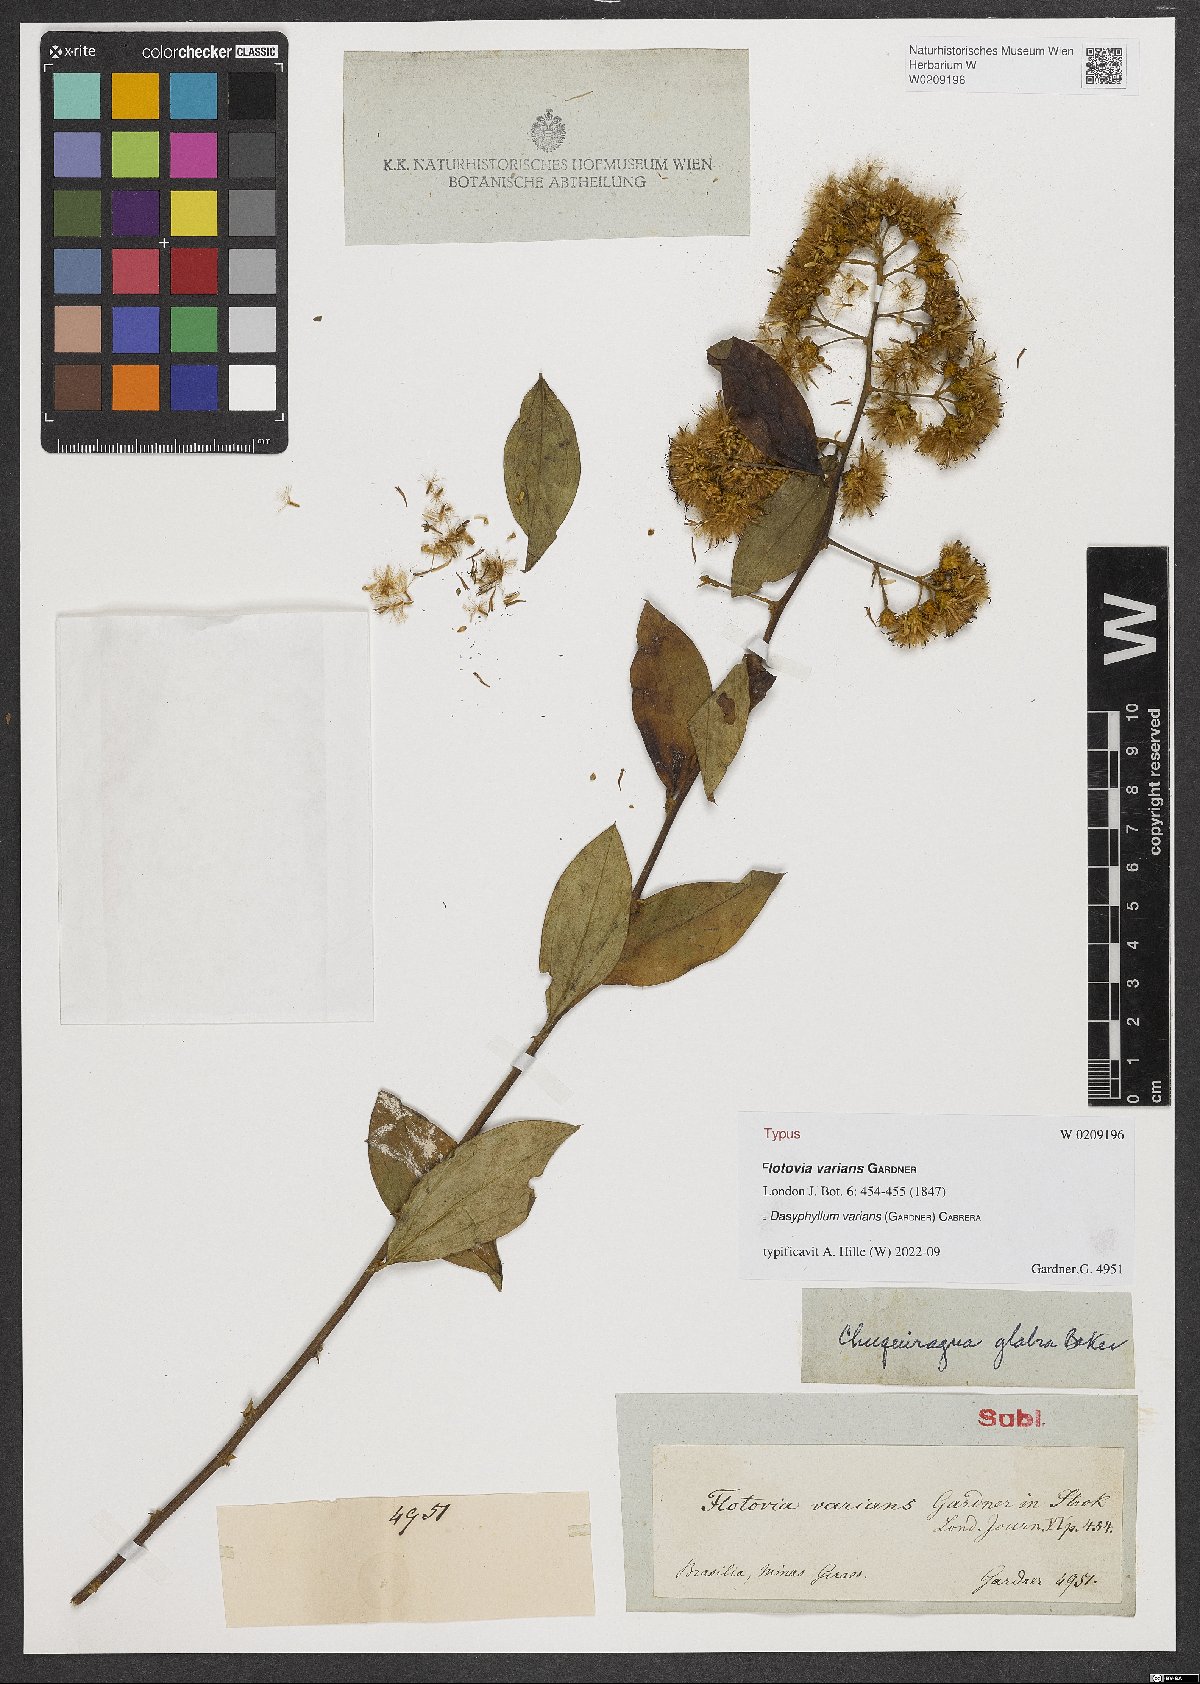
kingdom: Plantae
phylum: Tracheophyta
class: Magnoliopsida
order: Asterales
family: Asteraceae
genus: Dasyphyllum
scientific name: Dasyphyllum varians
